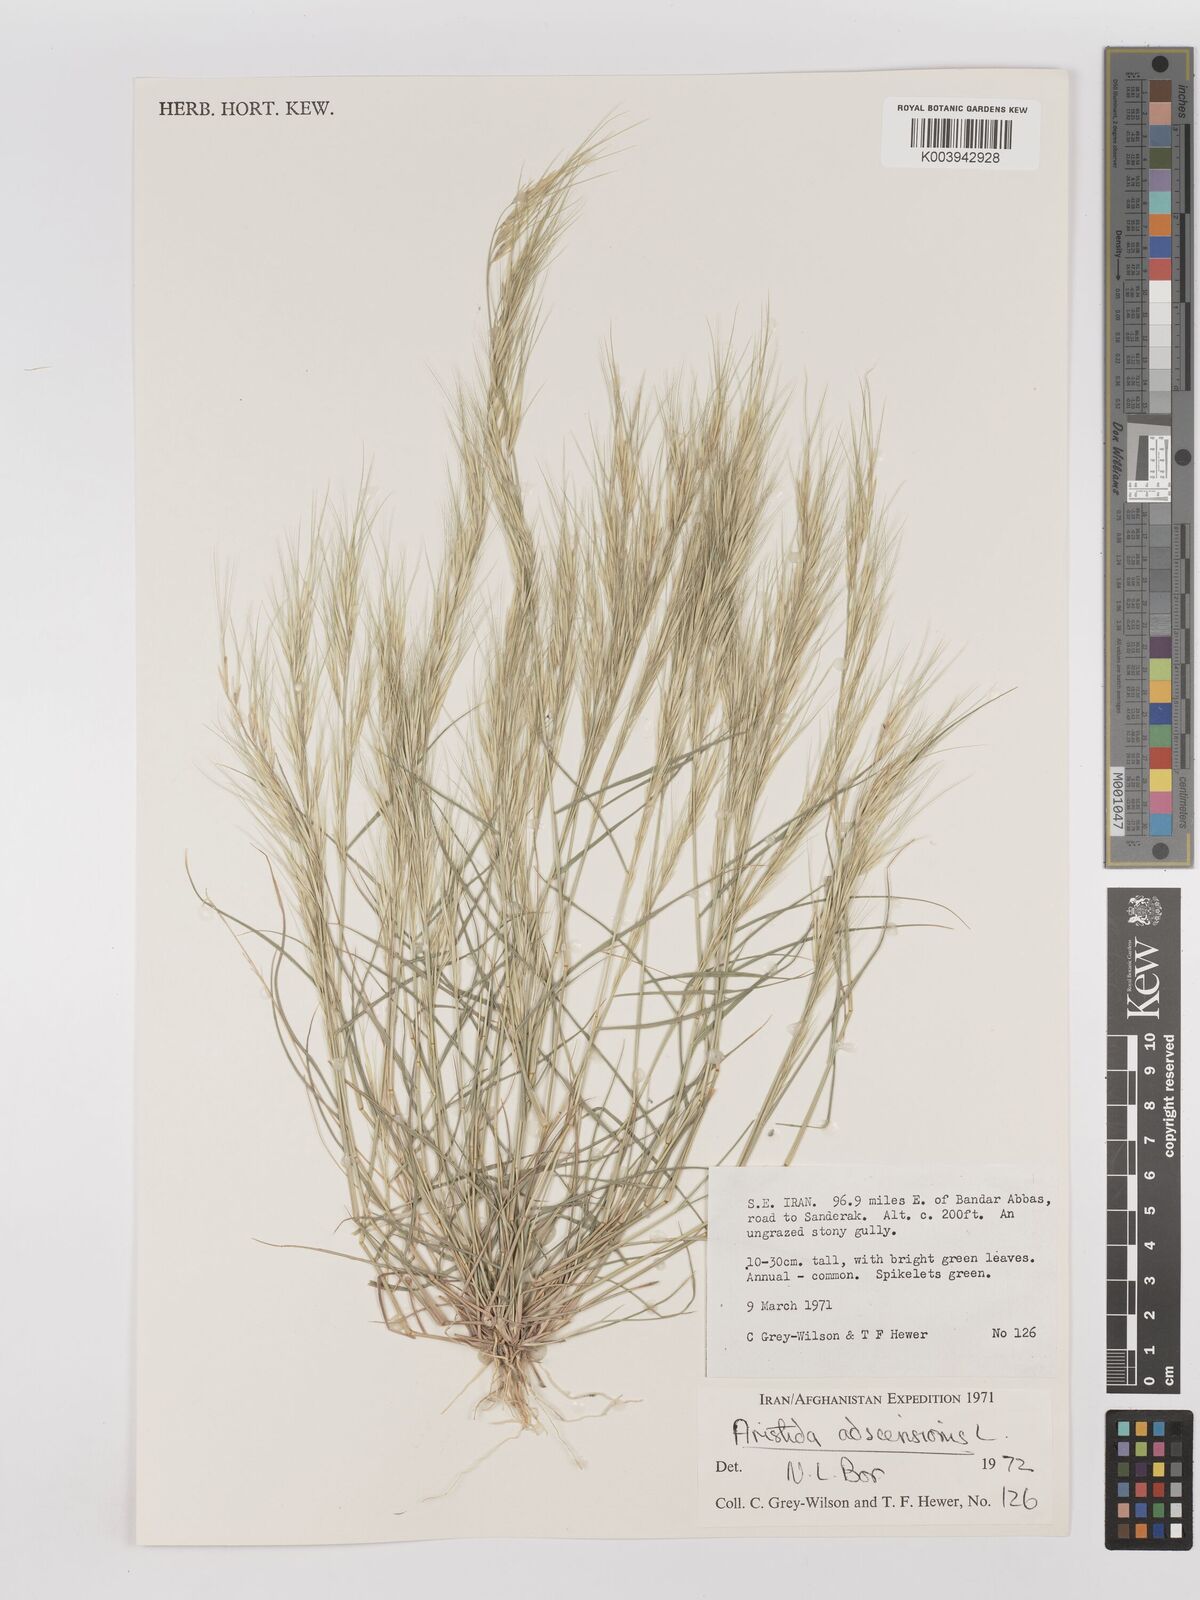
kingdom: Plantae
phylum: Tracheophyta
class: Liliopsida
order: Poales
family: Poaceae
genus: Aristida
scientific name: Aristida adscensionis
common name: Sixweeks threeawn
